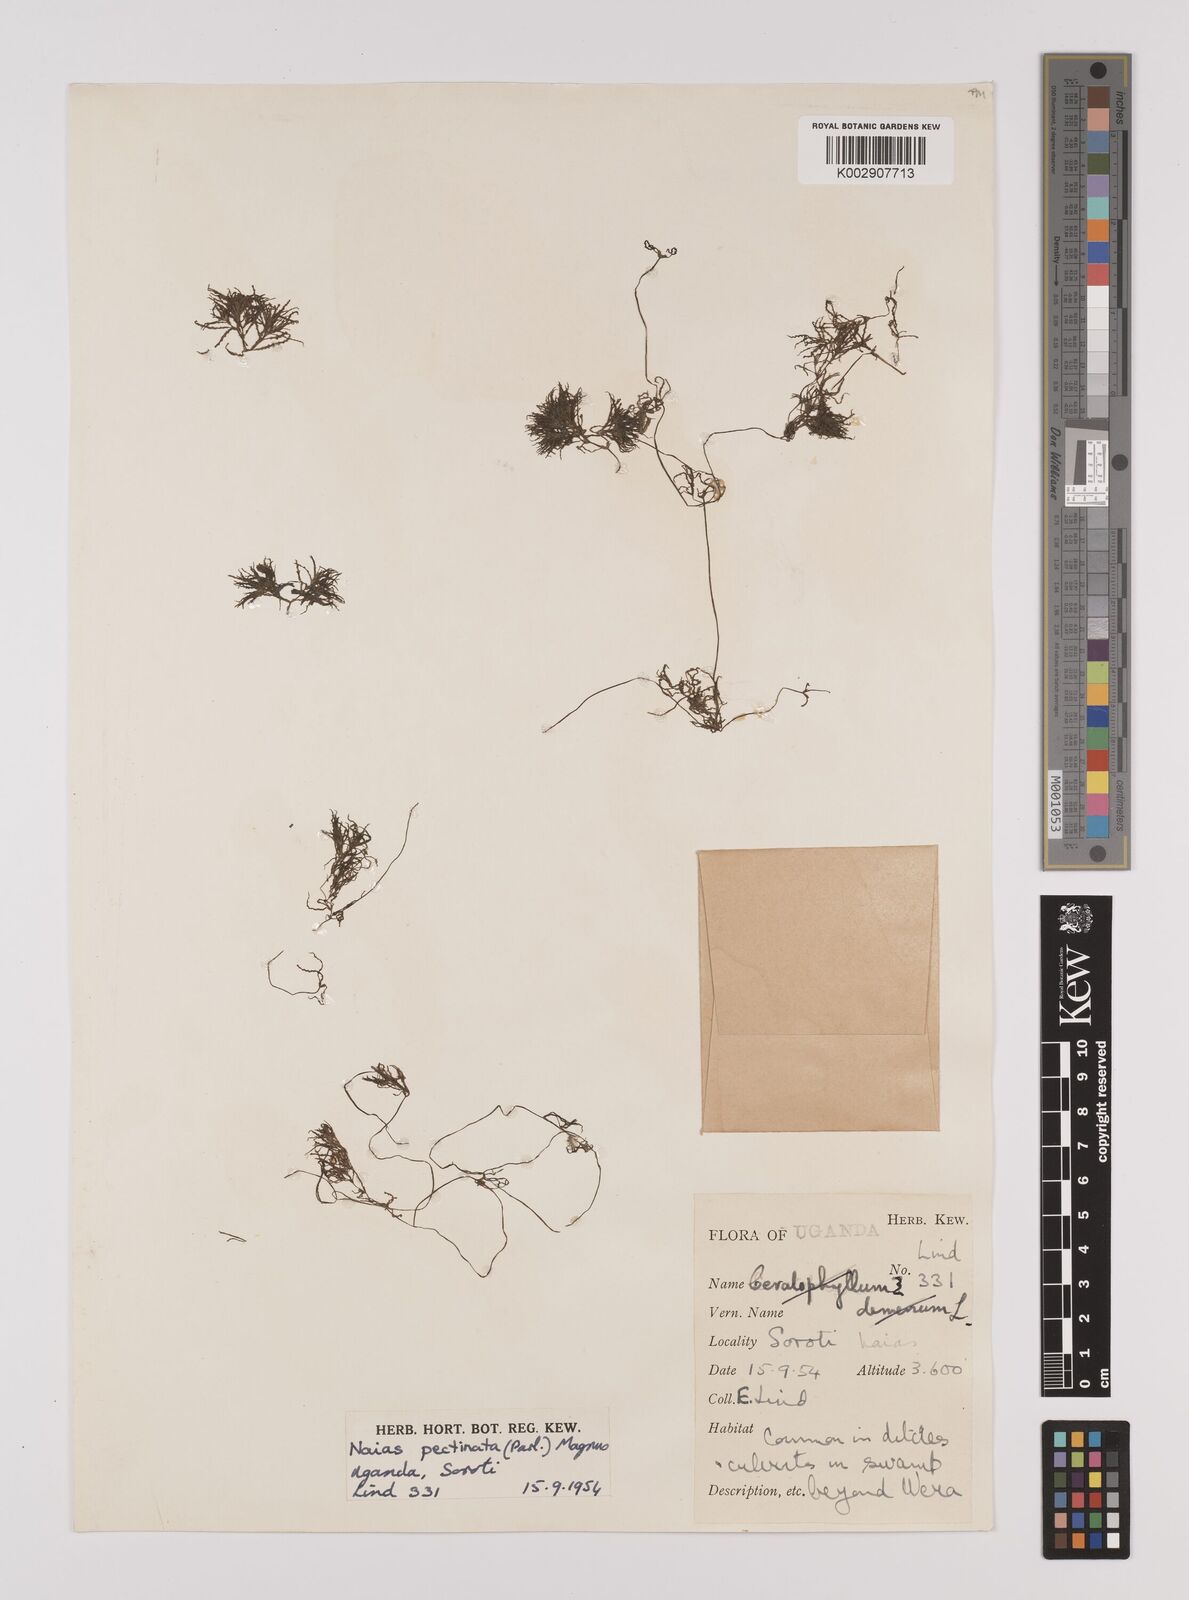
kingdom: Plantae
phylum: Tracheophyta
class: Liliopsida
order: Alismatales
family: Hydrocharitaceae
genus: Najas
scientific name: Najas horrida
